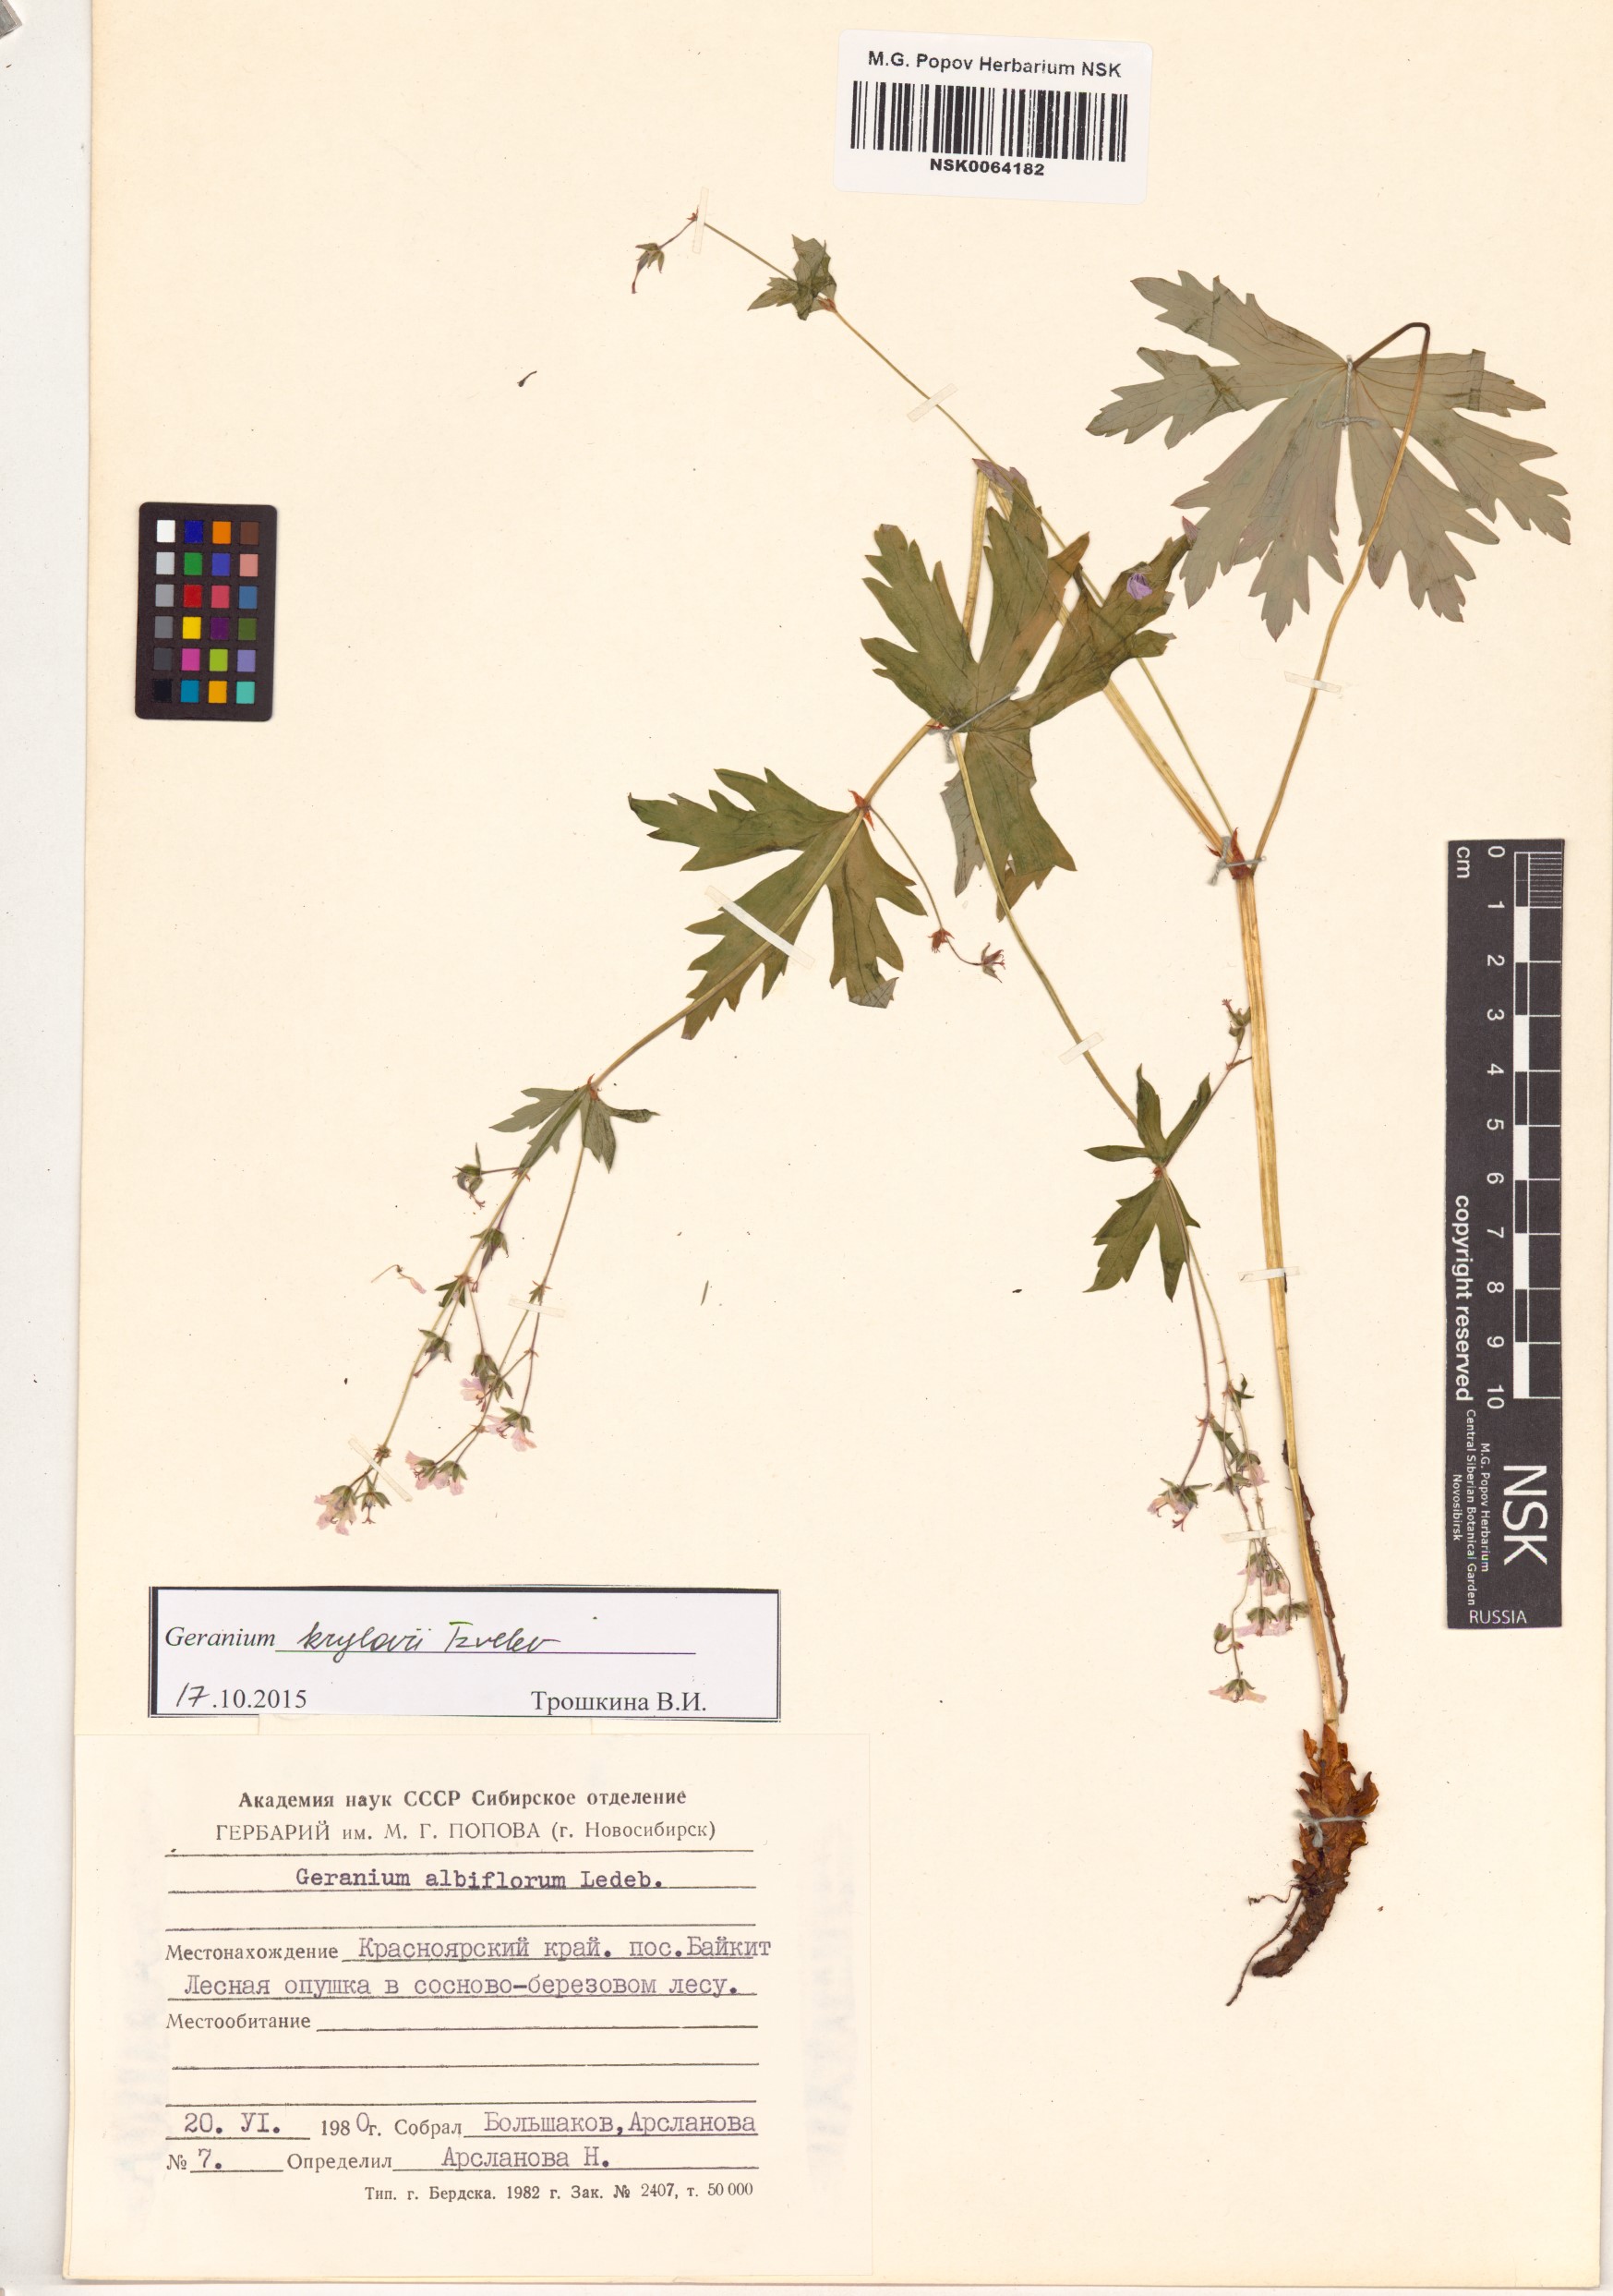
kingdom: Plantae
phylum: Tracheophyta
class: Magnoliopsida
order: Geraniales
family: Geraniaceae
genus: Geranium
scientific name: Geranium sylvaticum
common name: Wood crane's-bill
